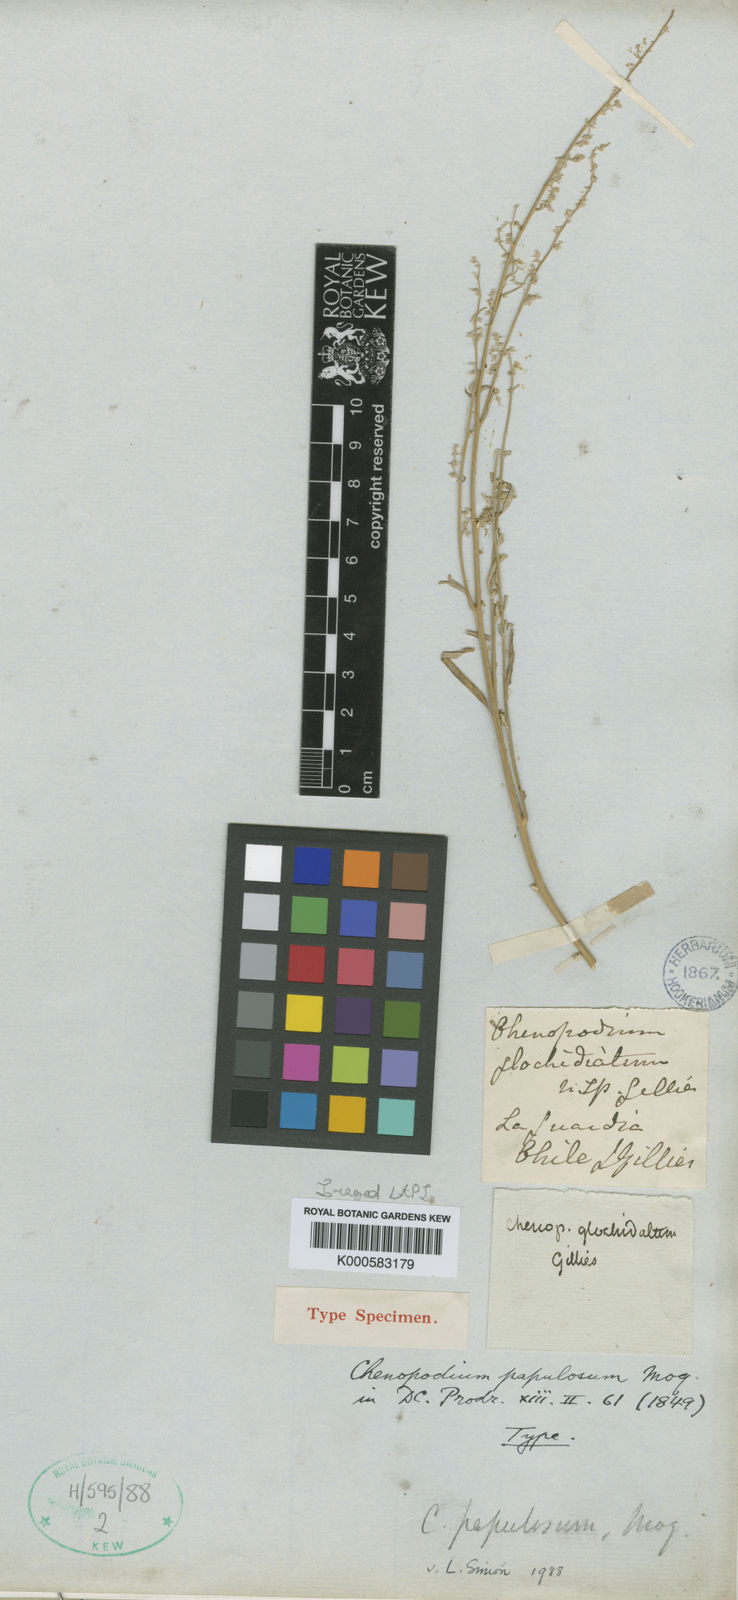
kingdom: Plantae
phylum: Tracheophyta
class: Magnoliopsida
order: Caryophyllales
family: Amaranthaceae
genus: Chenopodium
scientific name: Chenopodium papulosum
